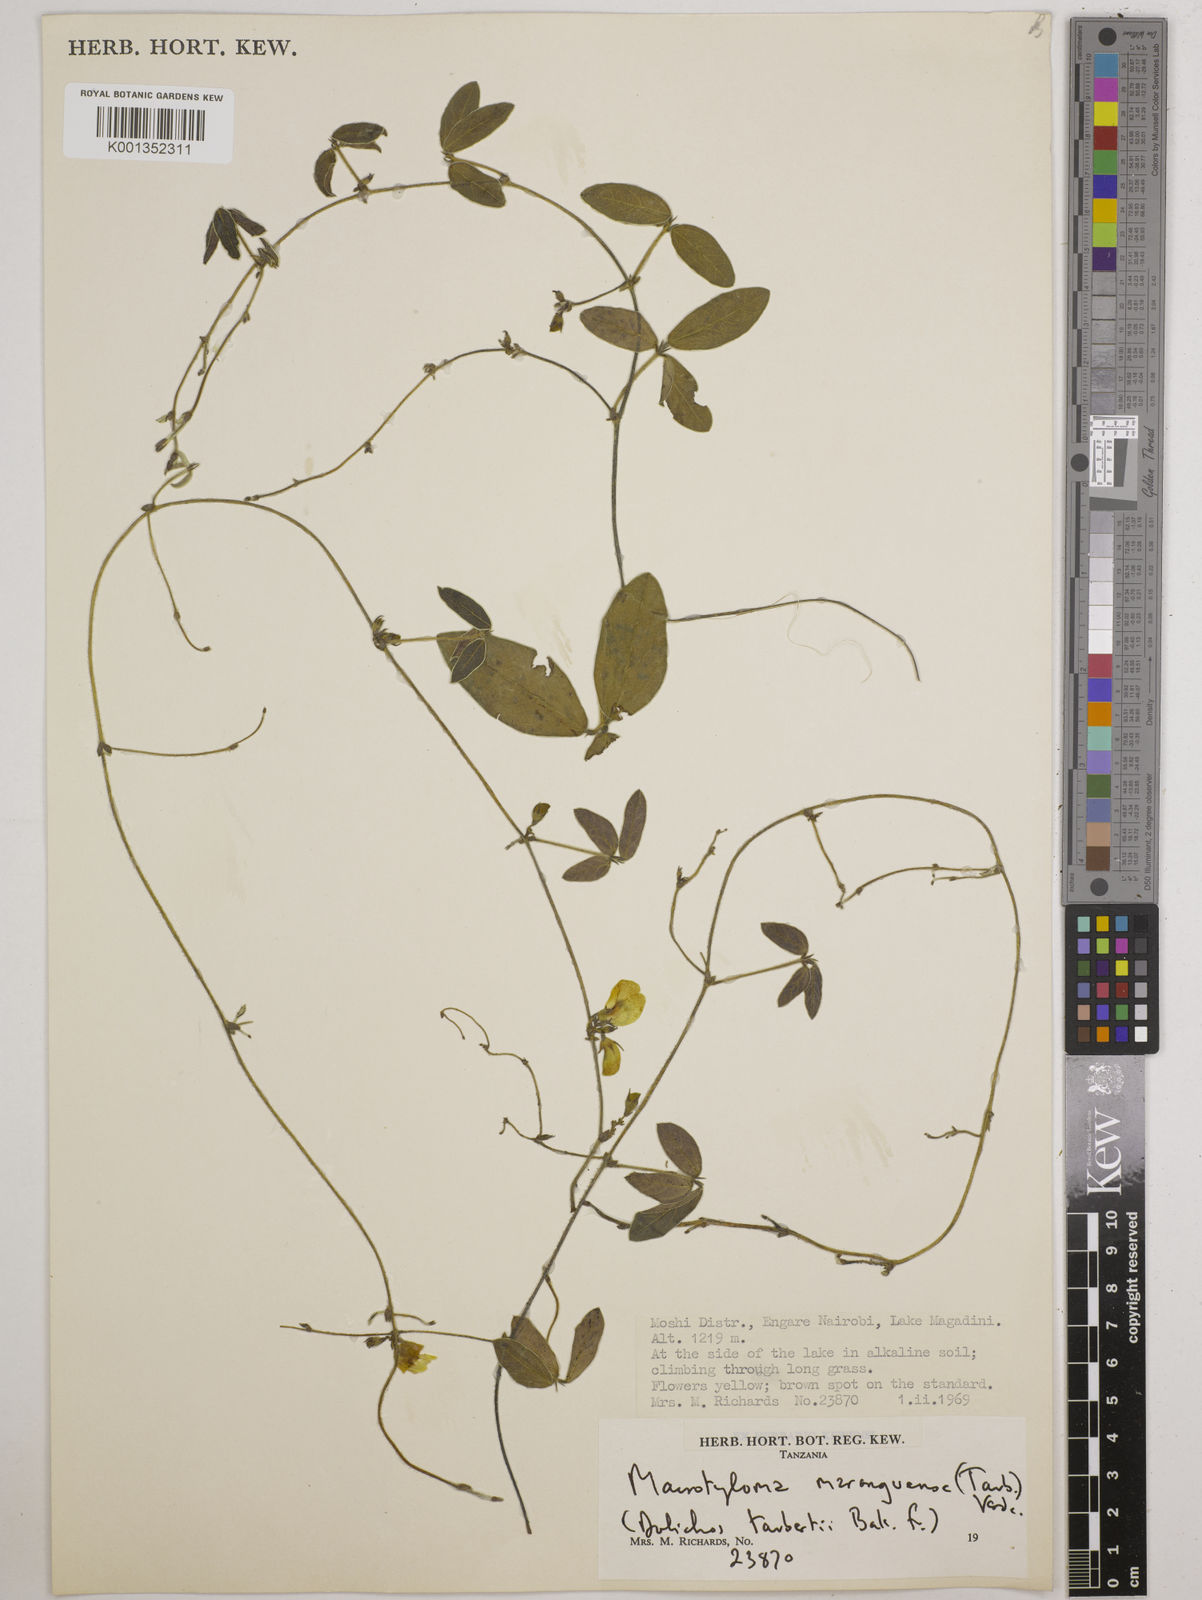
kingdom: Plantae
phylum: Tracheophyta
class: Magnoliopsida
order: Fabales
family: Fabaceae
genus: Macrotyloma
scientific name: Macrotyloma maranguense
